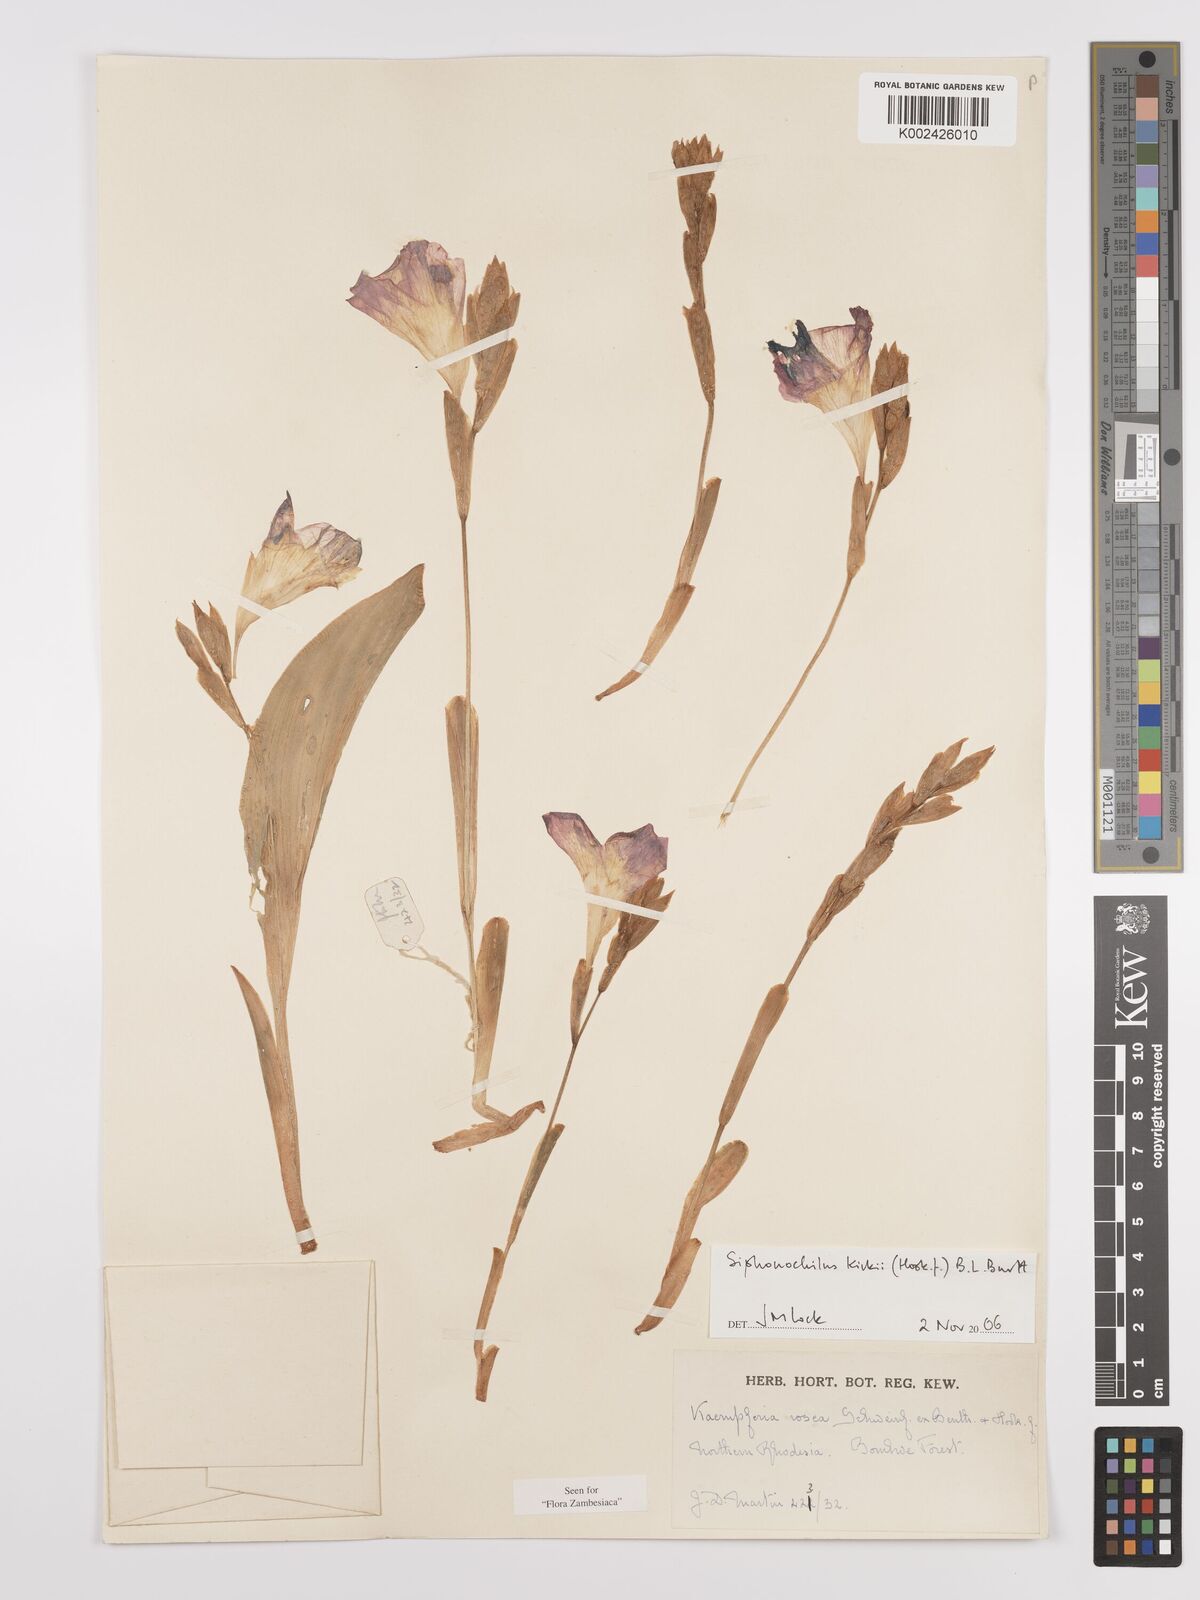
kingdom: Plantae
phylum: Tracheophyta
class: Liliopsida
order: Zingiberales
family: Zingiberaceae
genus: Siphonochilus
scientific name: Siphonochilus kirkii
